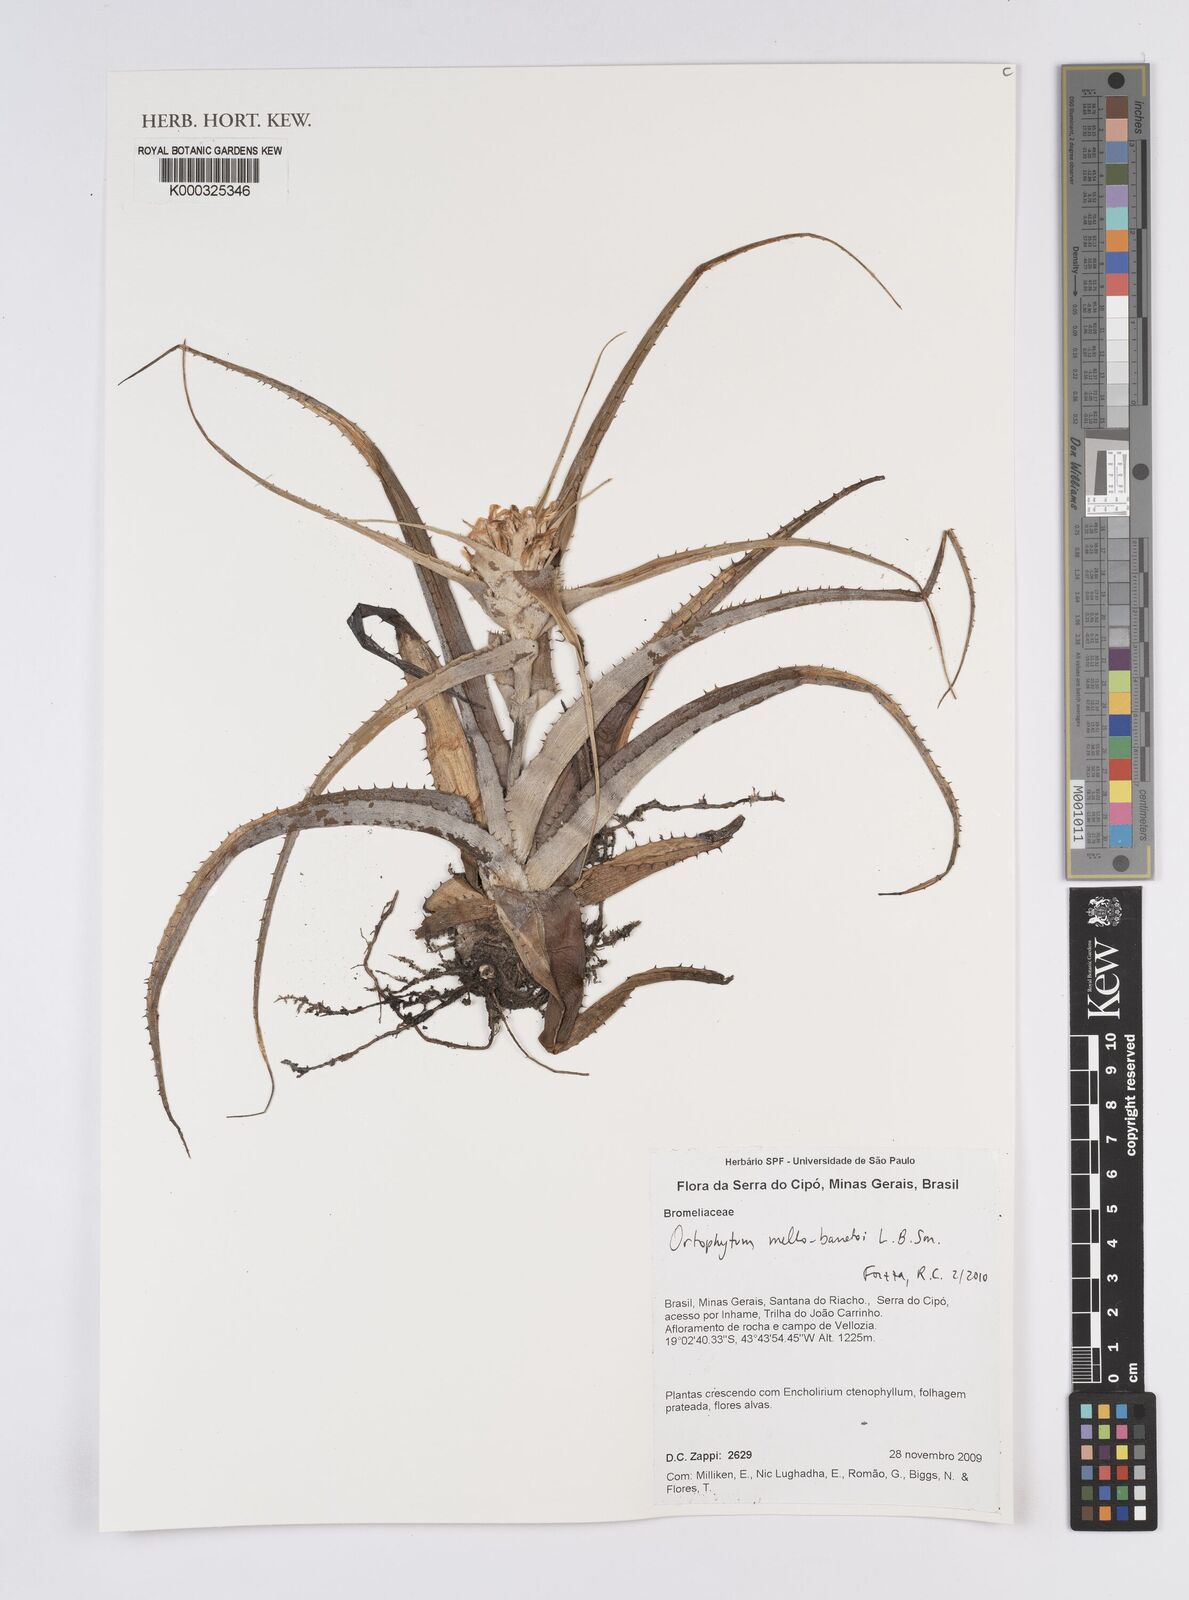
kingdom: Plantae
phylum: Tracheophyta
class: Liliopsida
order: Poales
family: Bromeliaceae
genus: Orthophytum
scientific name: Orthophytum mello-barretoi
